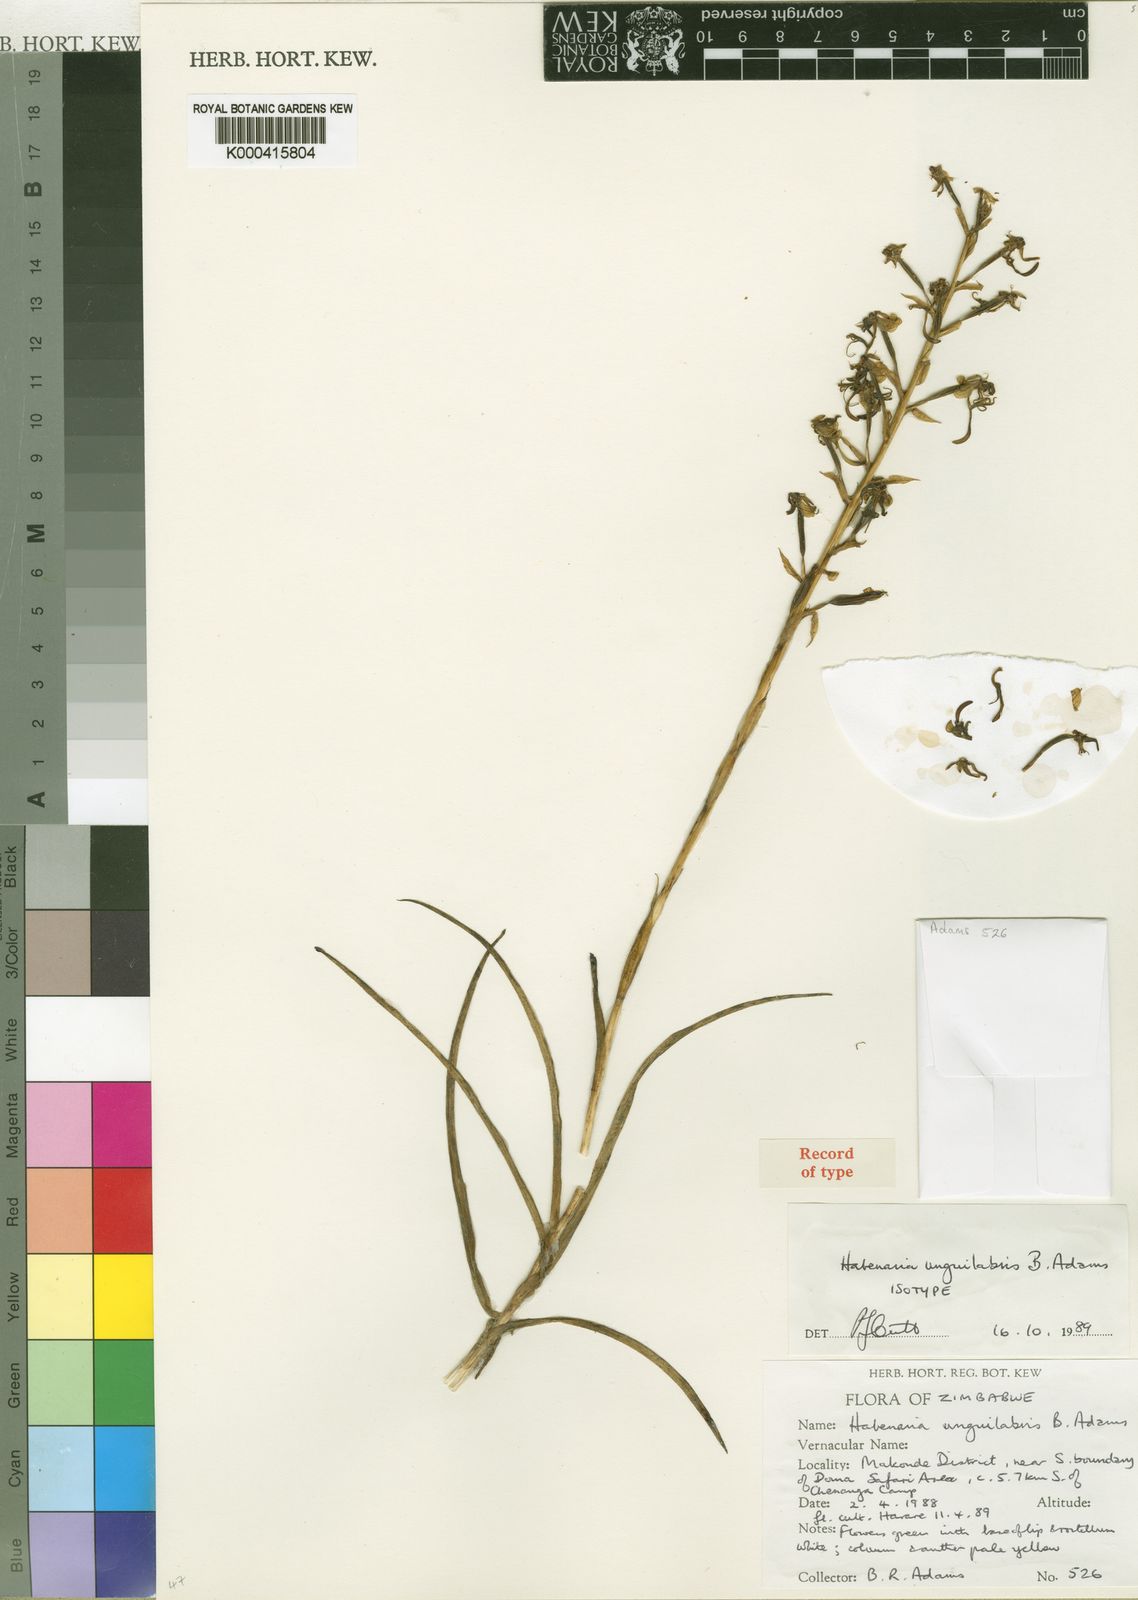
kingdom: Plantae
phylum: Tracheophyta
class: Liliopsida
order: Asparagales
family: Orchidaceae
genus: Habenaria
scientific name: Habenaria unguilabris
